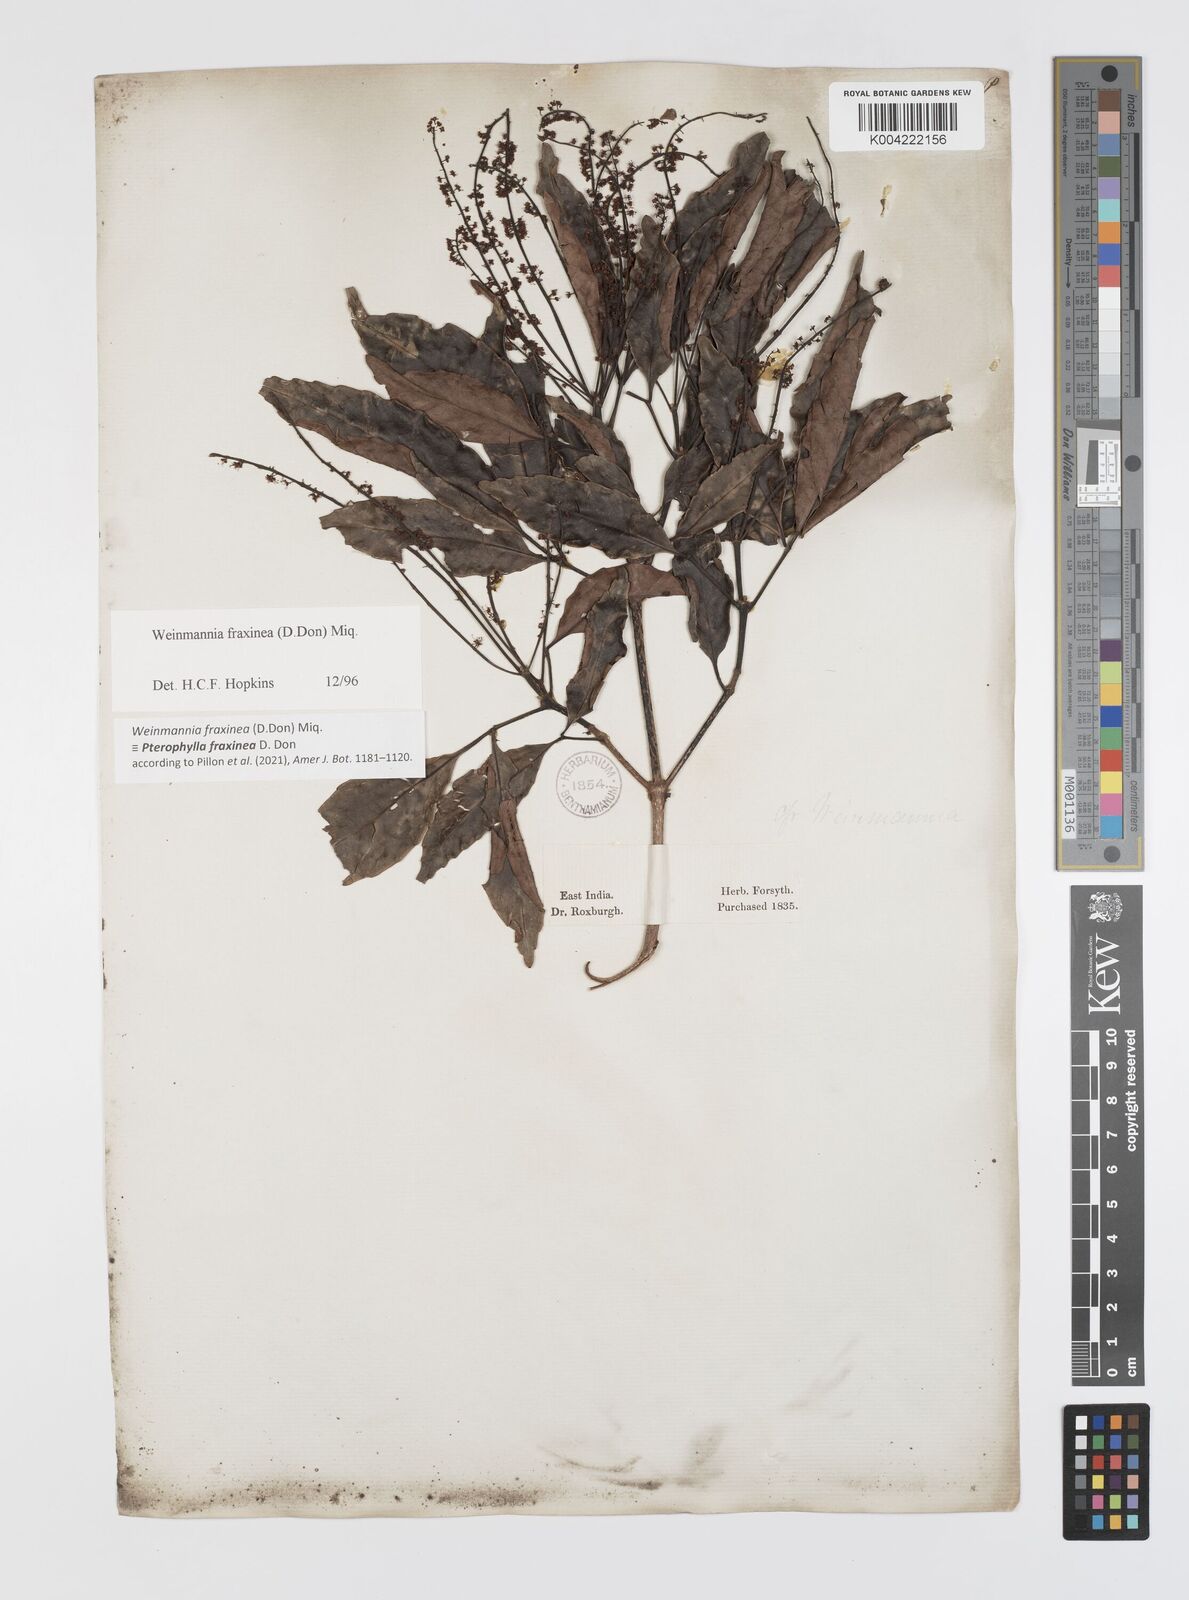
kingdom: Plantae
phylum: Tracheophyta
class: Magnoliopsida
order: Oxalidales
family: Cunoniaceae
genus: Pterophylla
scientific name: Pterophylla fraxinea
